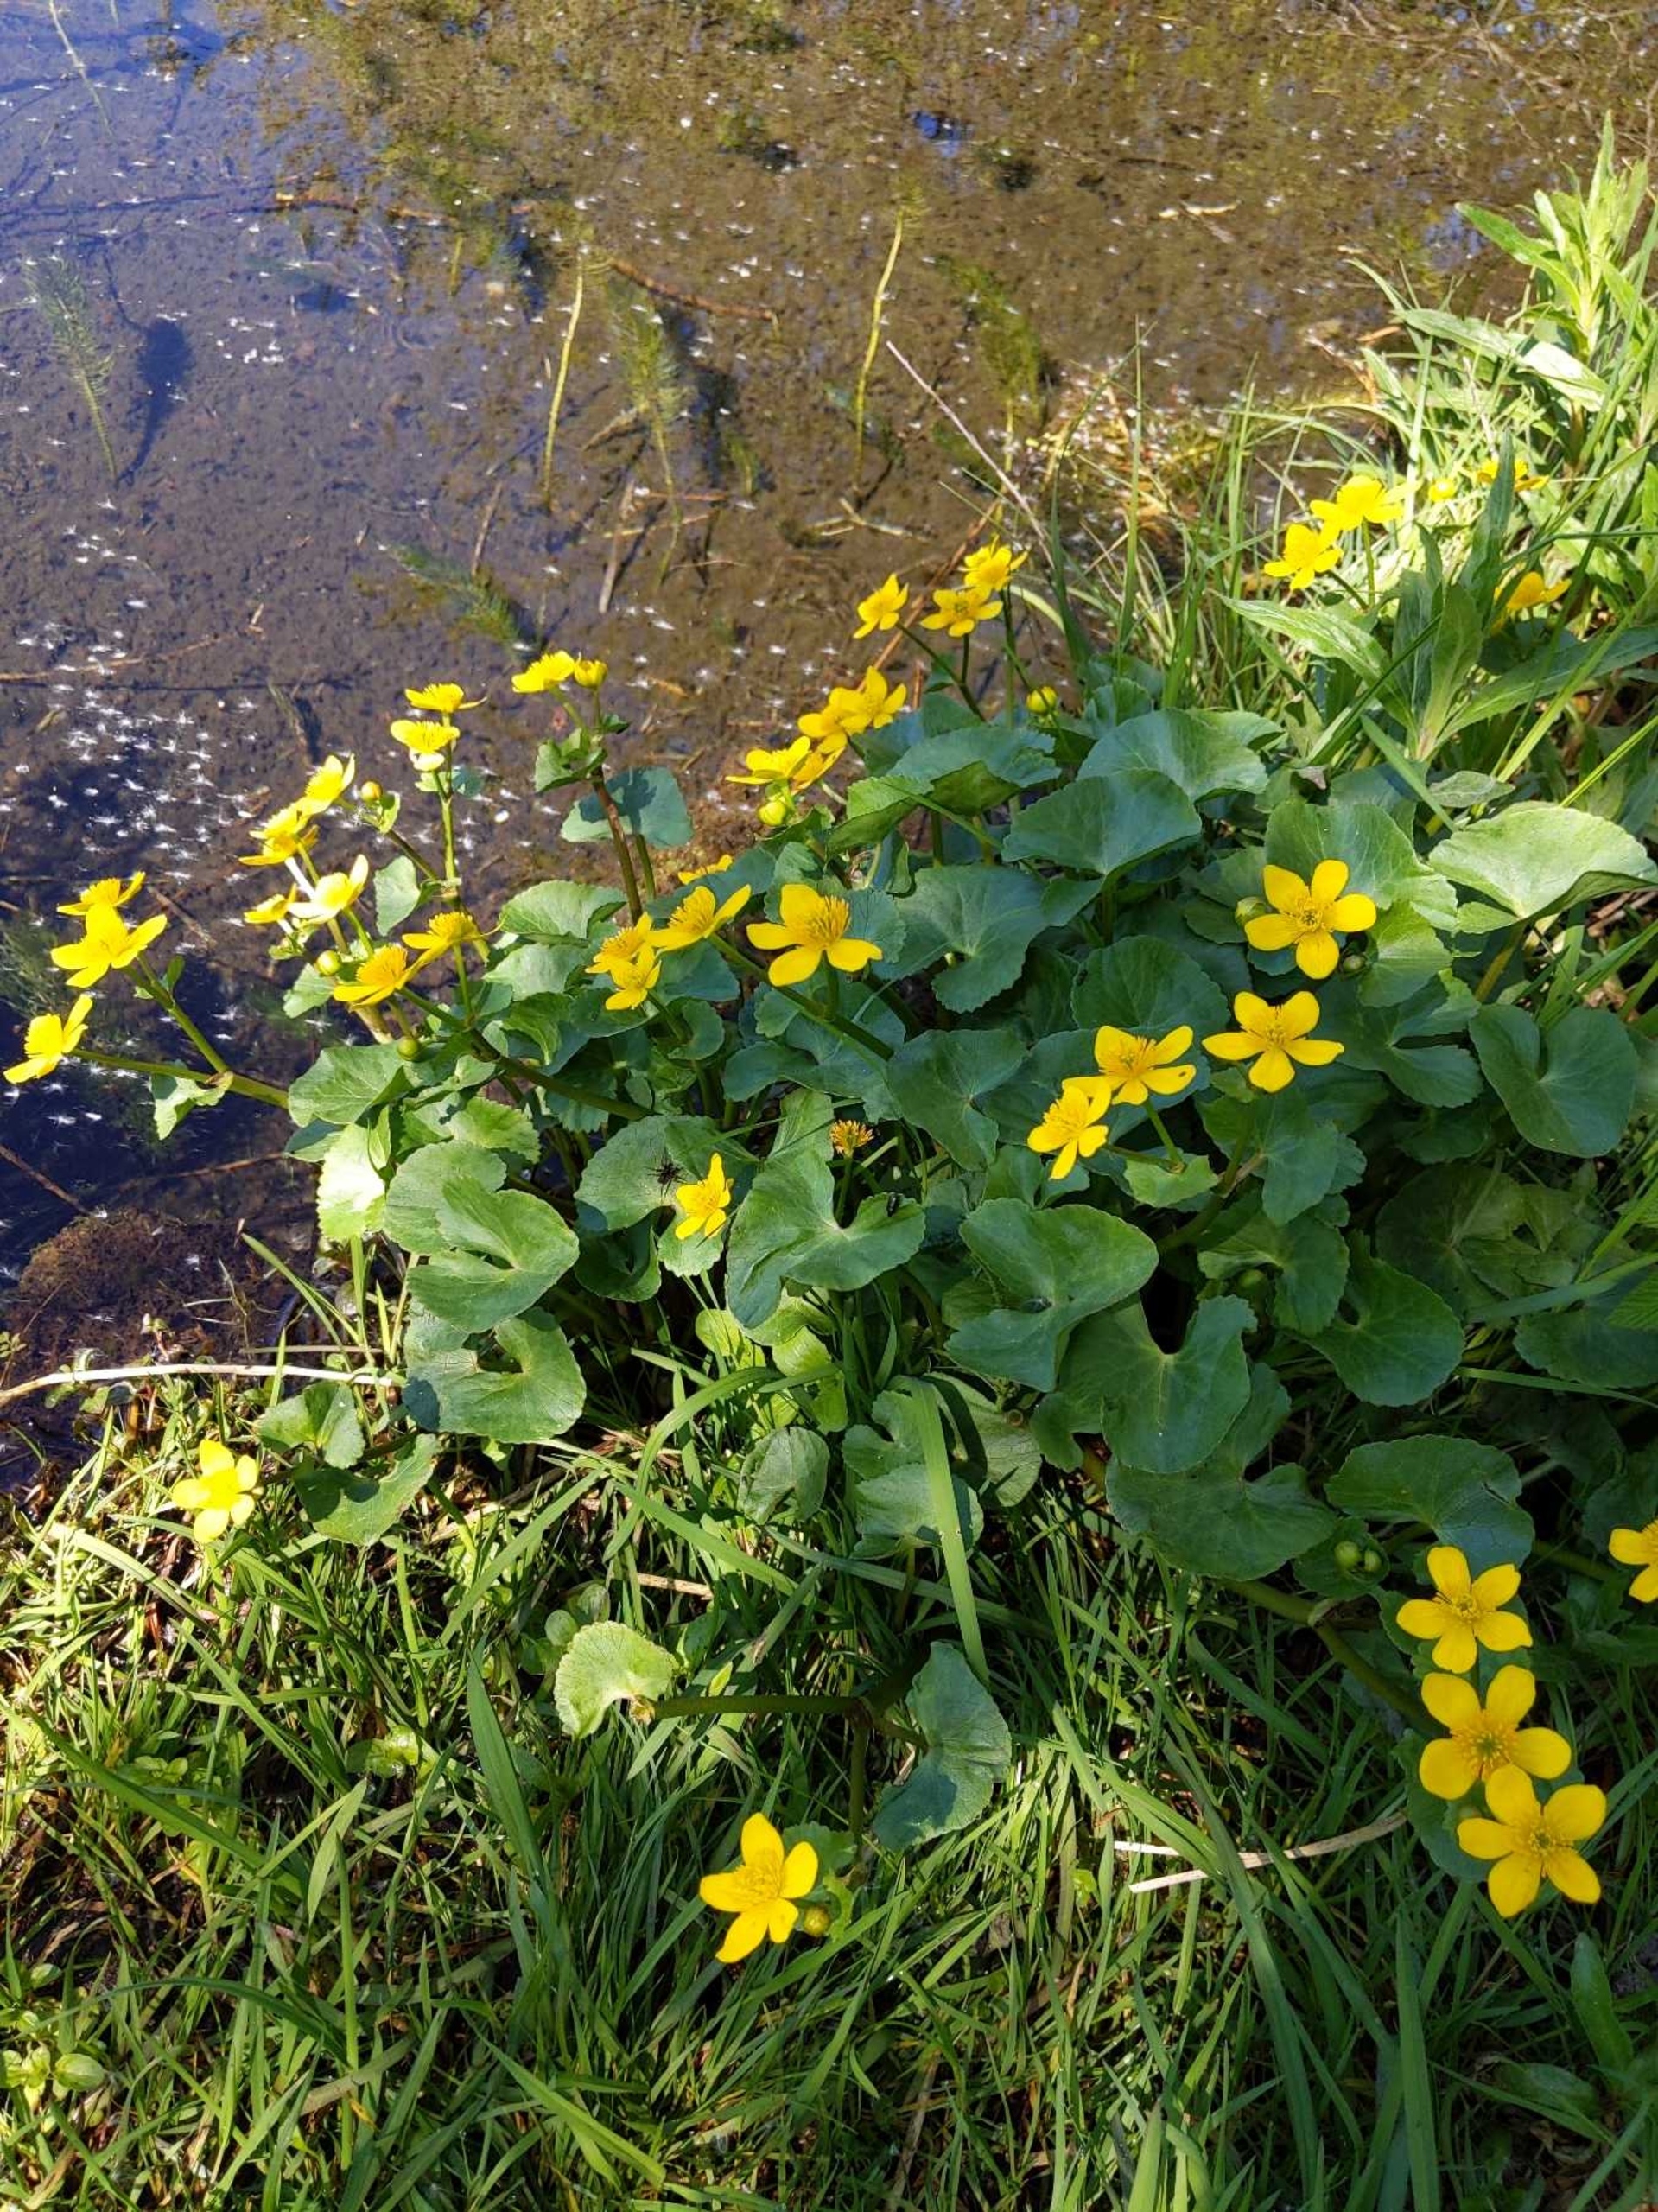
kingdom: Plantae
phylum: Tracheophyta
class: Magnoliopsida
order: Ranunculales
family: Ranunculaceae
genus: Caltha
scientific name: Caltha palustris
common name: Eng-kabbeleje
